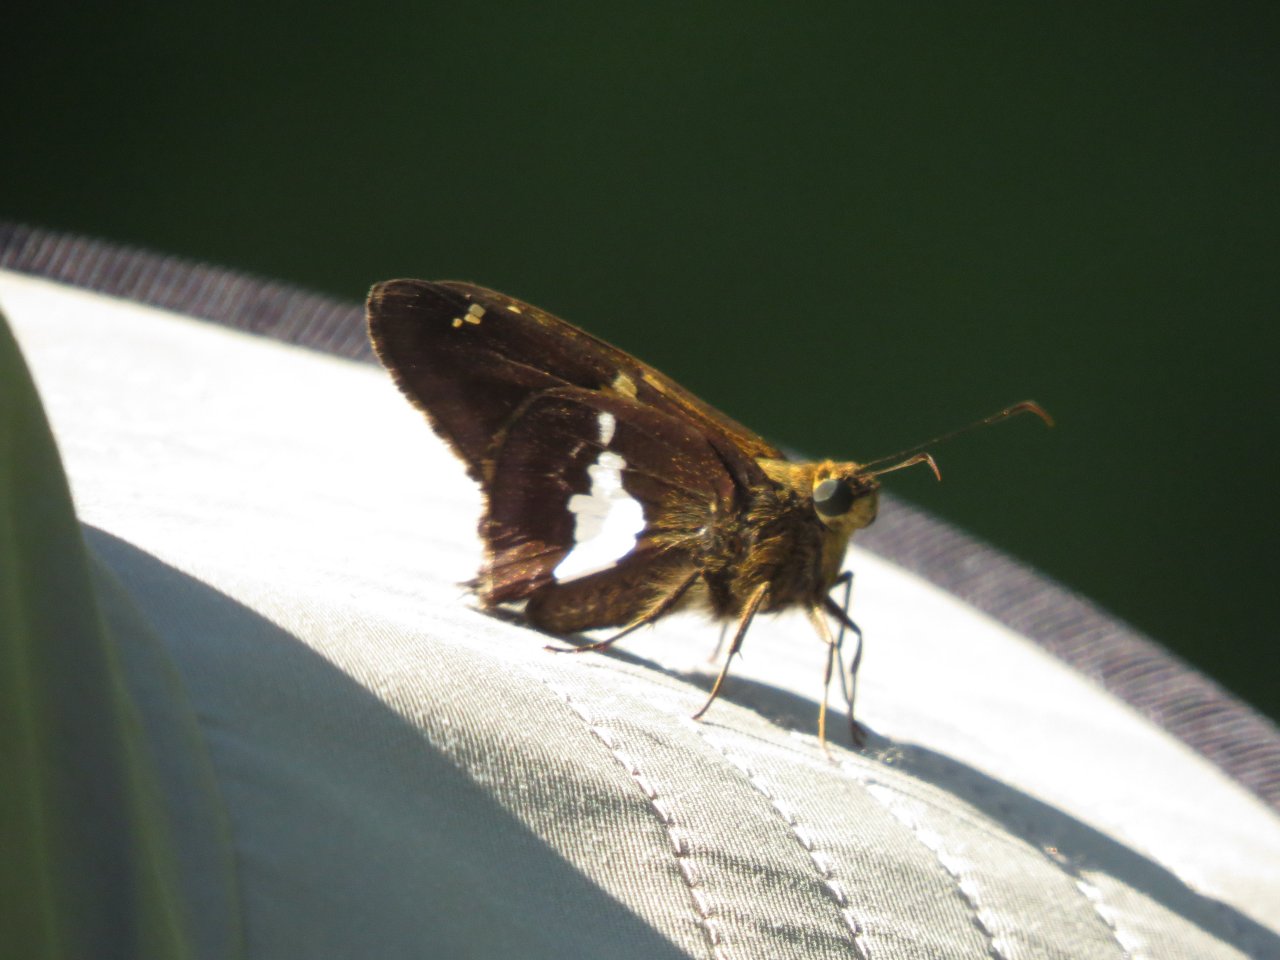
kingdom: Animalia
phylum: Arthropoda
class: Insecta
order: Lepidoptera
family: Hesperiidae
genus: Epargyreus
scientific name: Epargyreus clarus
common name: Silver-spotted Skipper
